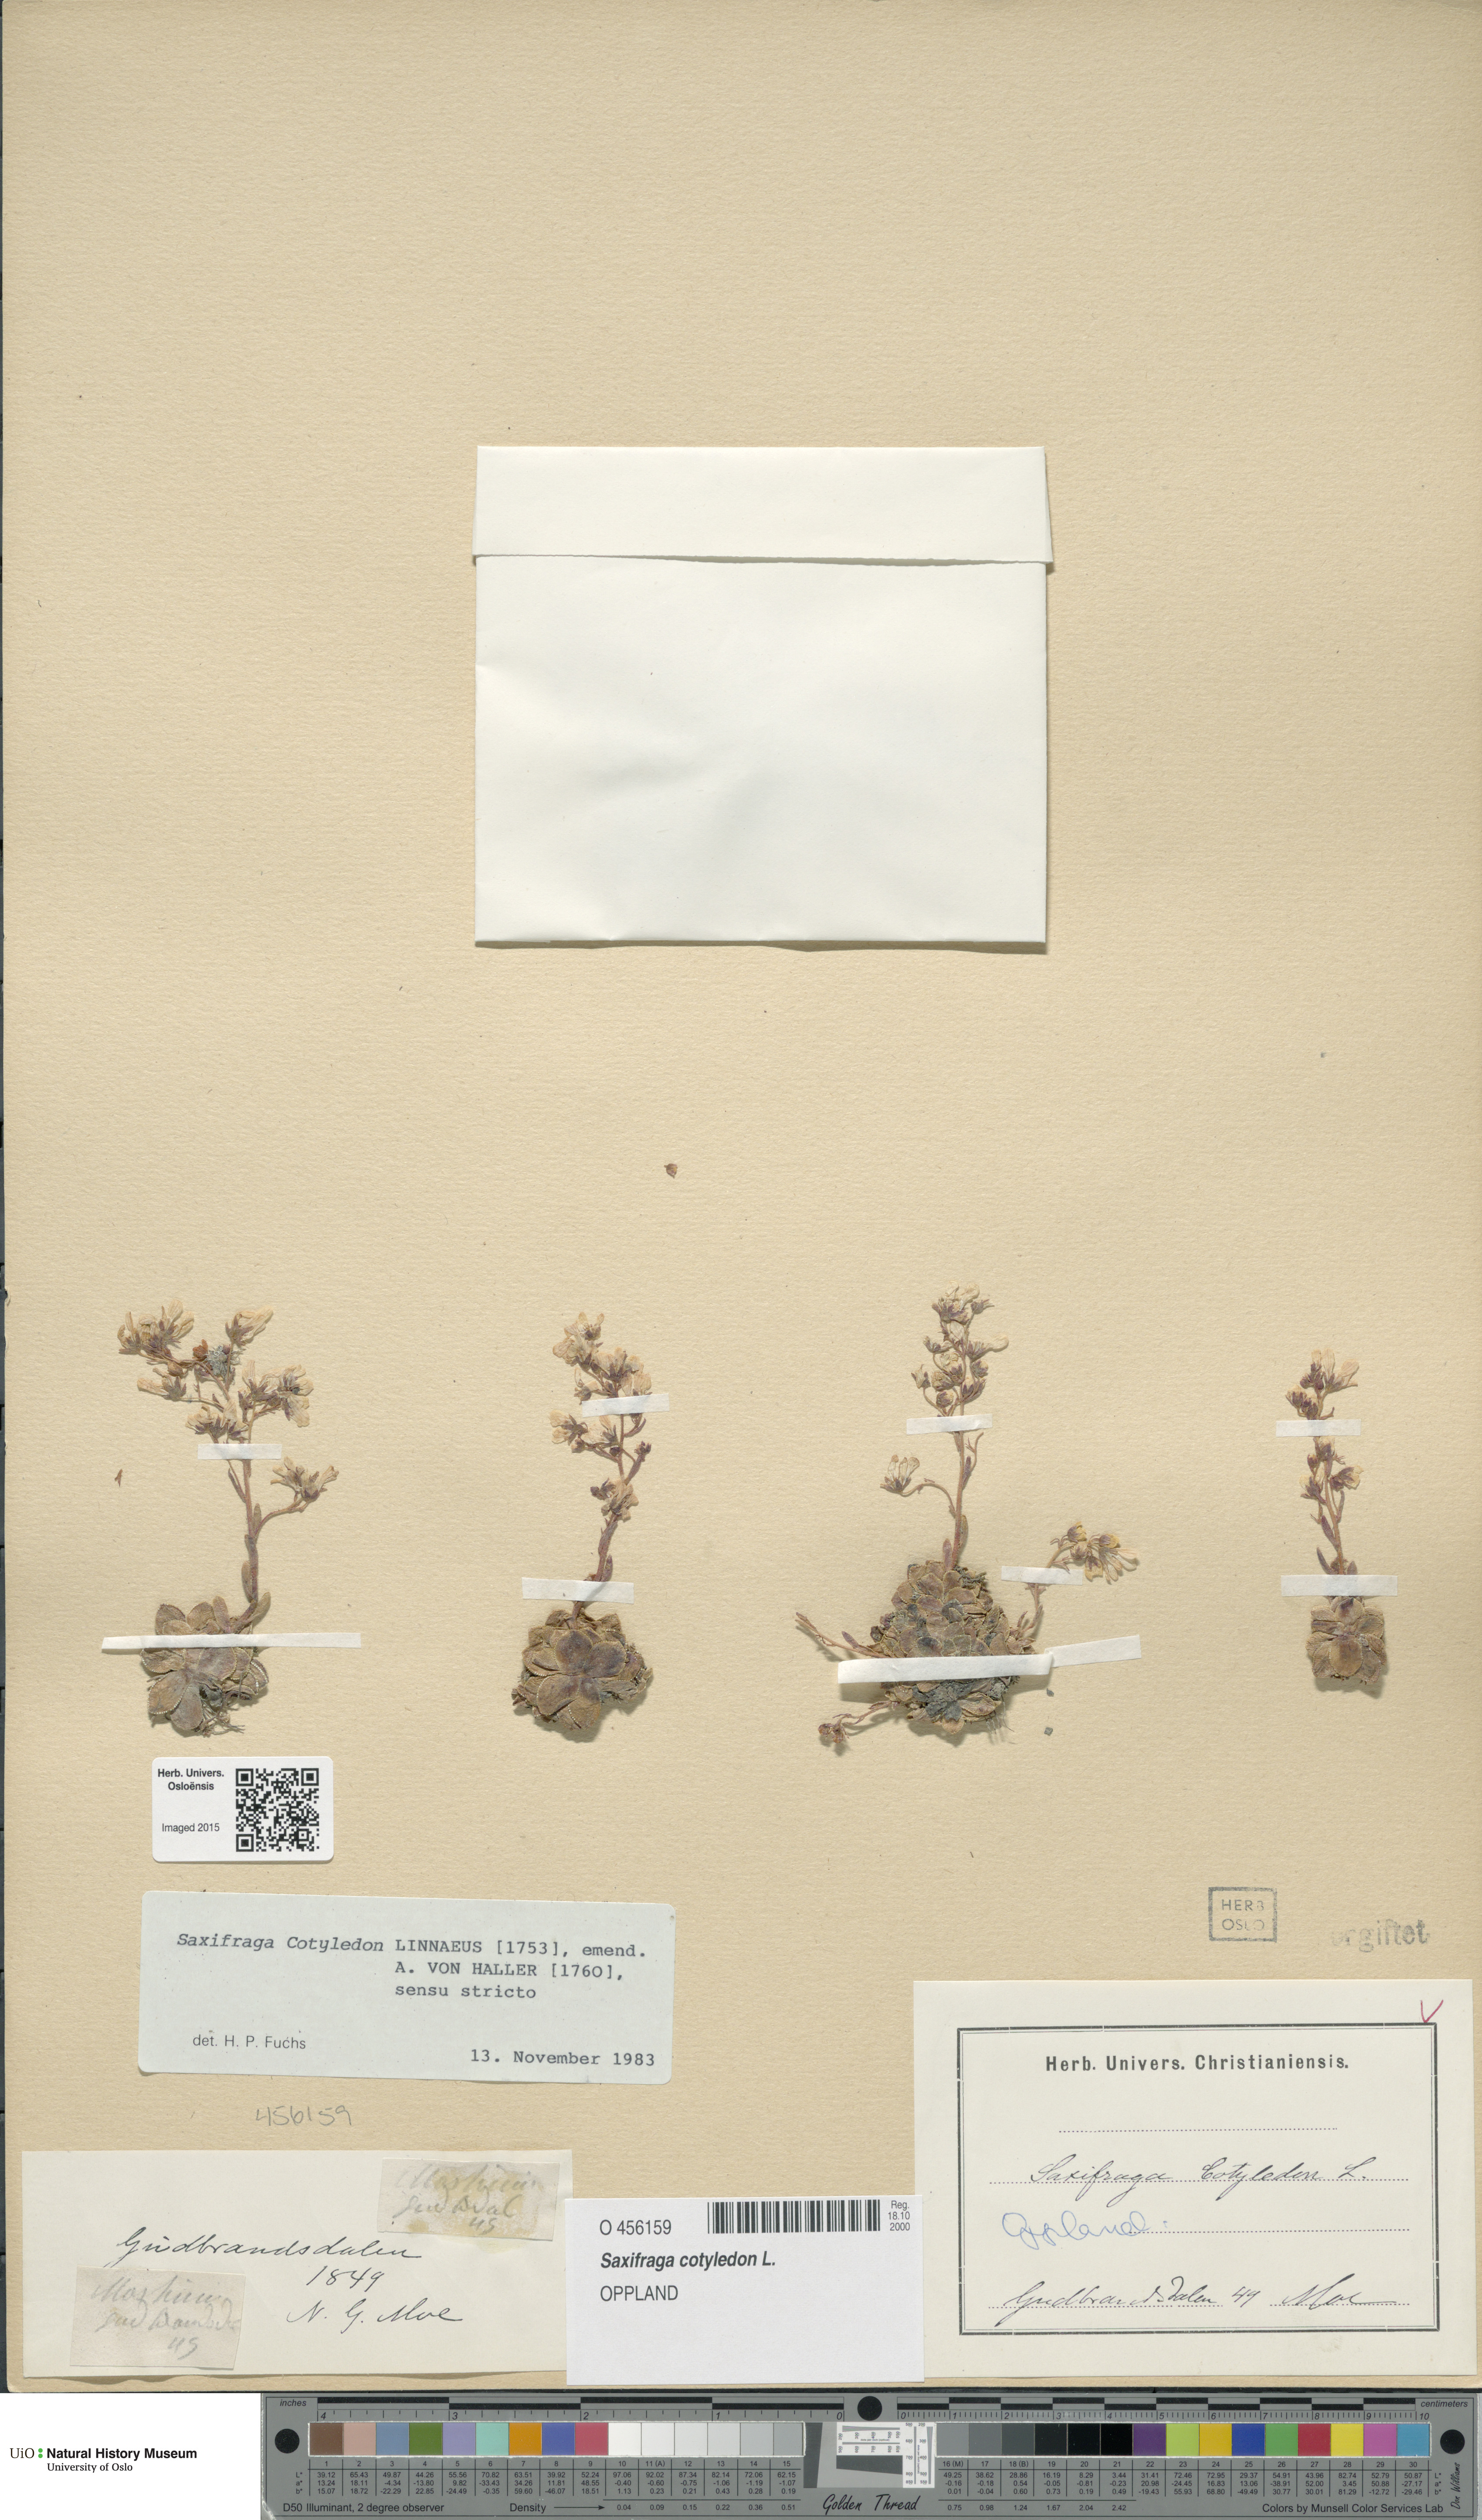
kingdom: Plantae
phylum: Tracheophyta
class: Magnoliopsida
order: Saxifragales
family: Saxifragaceae
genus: Saxifraga
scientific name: Saxifraga cotyledon
